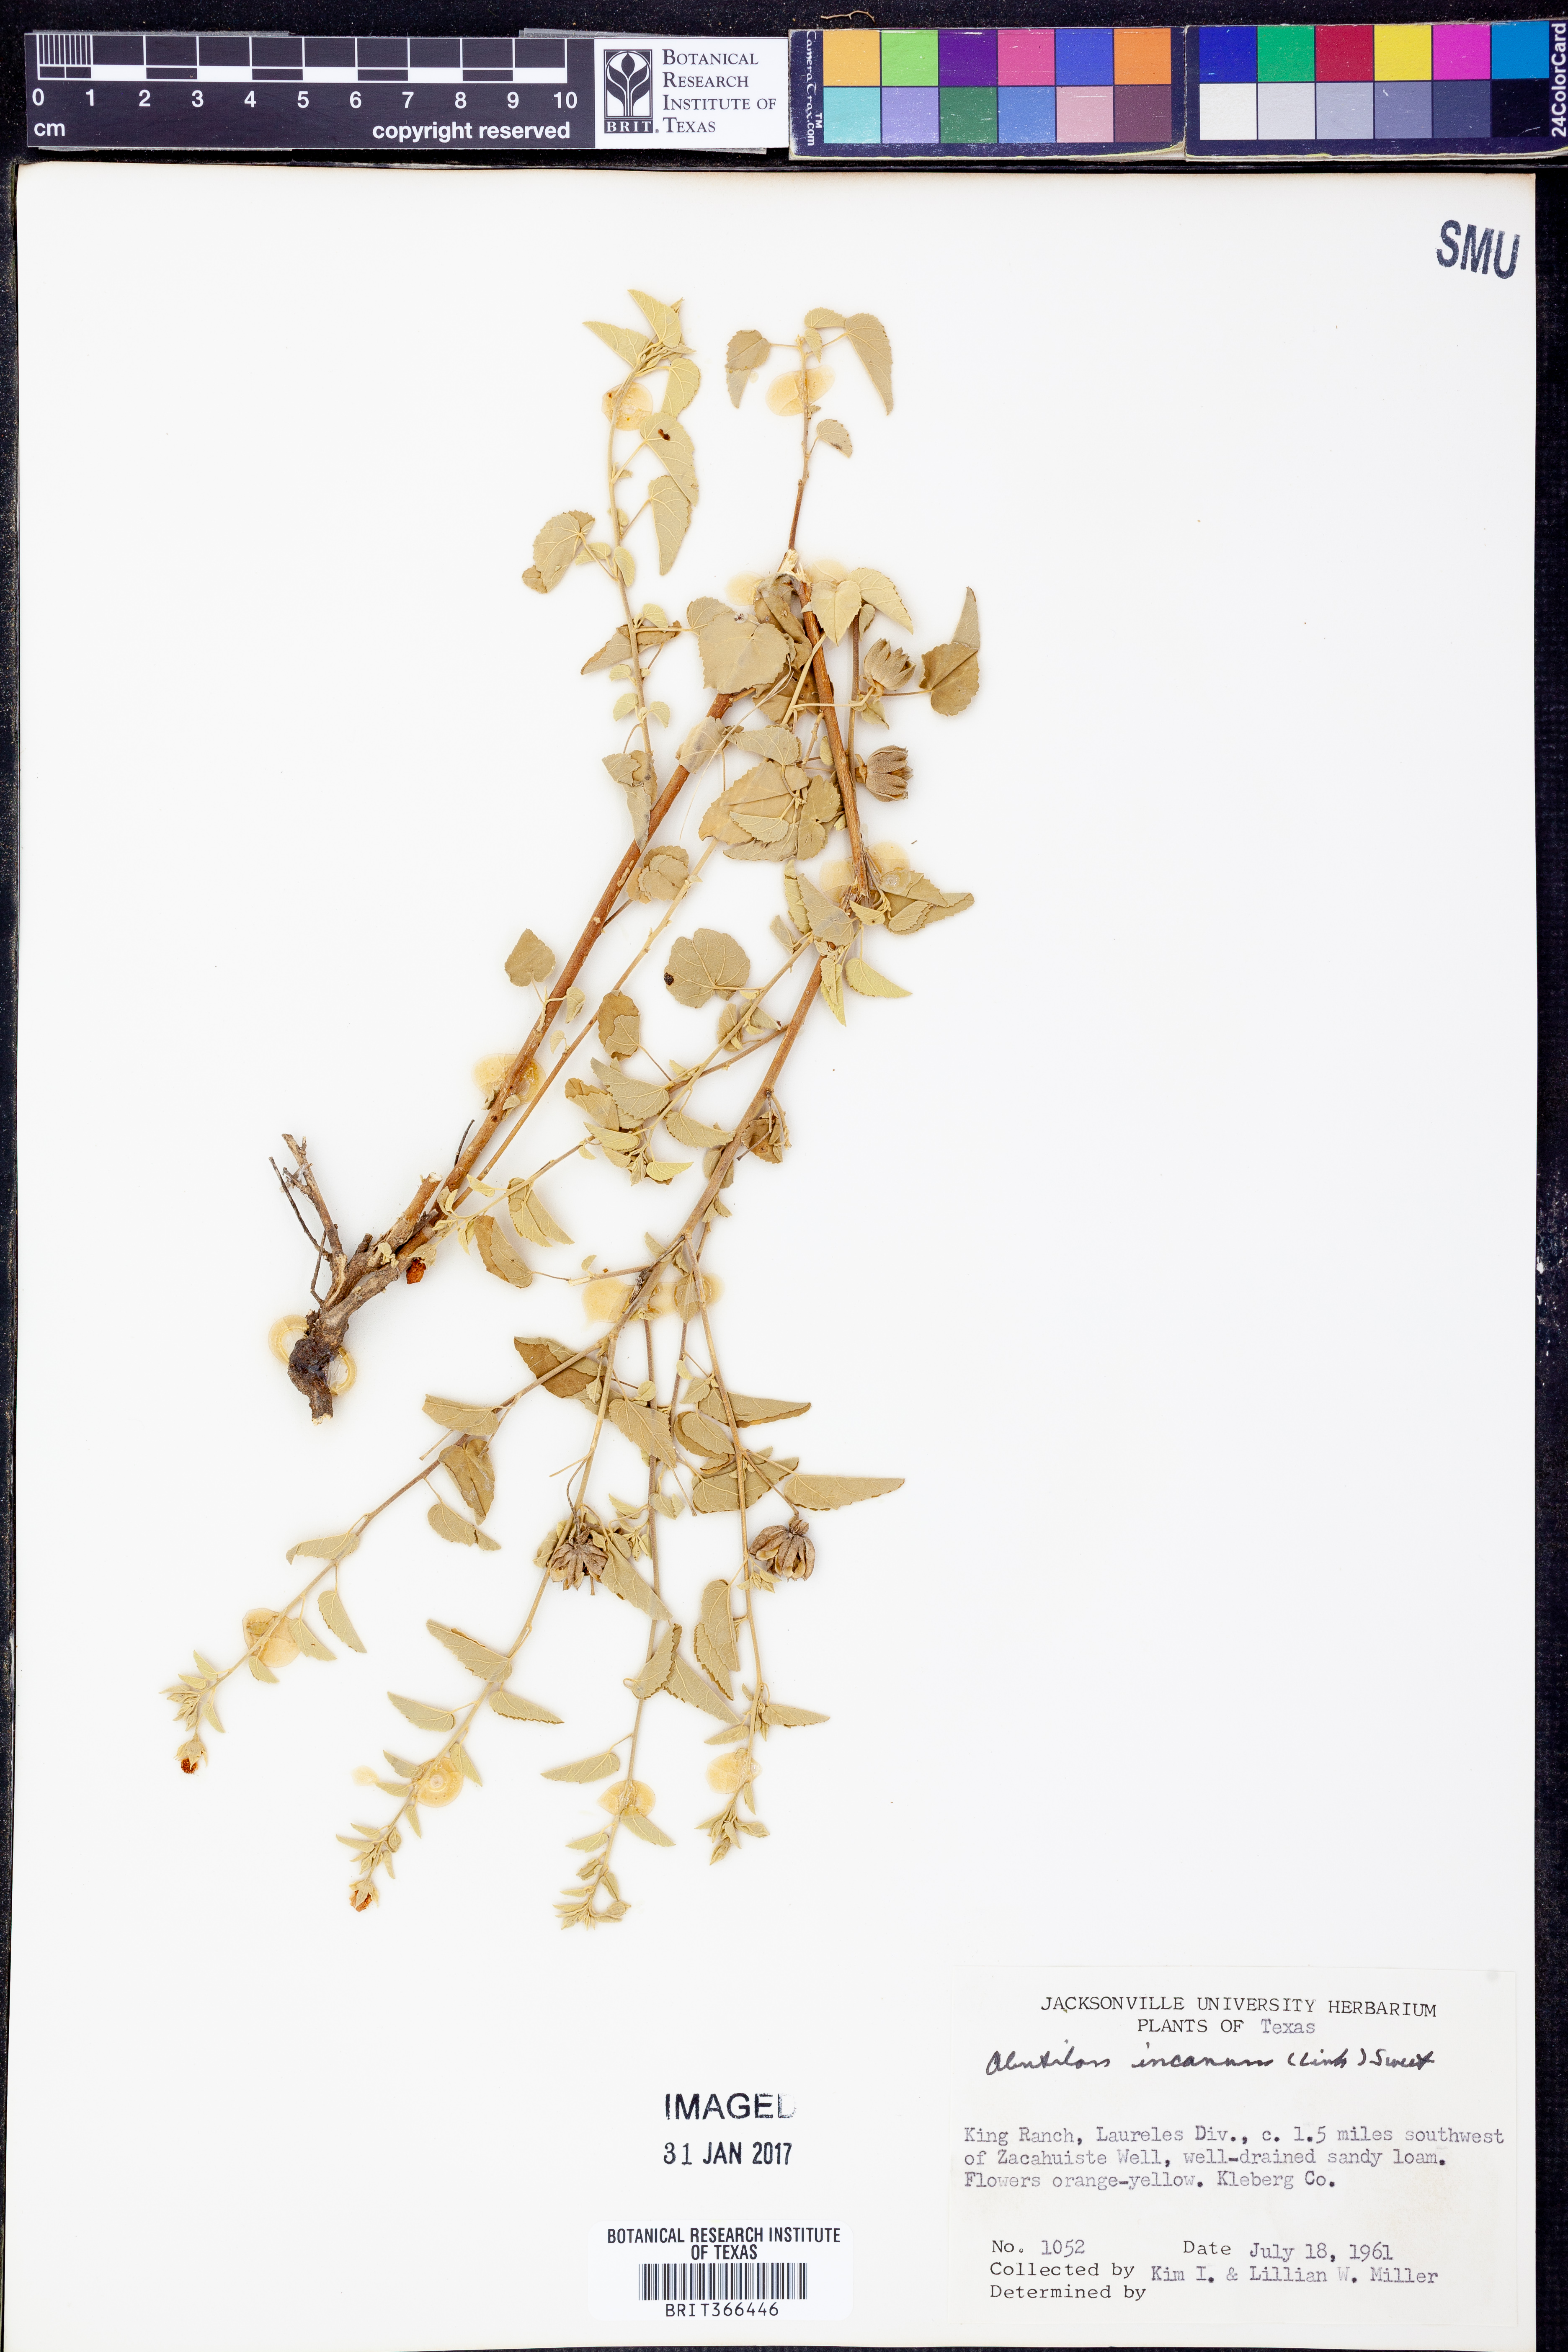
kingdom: Plantae
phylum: Tracheophyta
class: Magnoliopsida
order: Malvales
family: Malvaceae
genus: Abutilon
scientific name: Abutilon incanum
